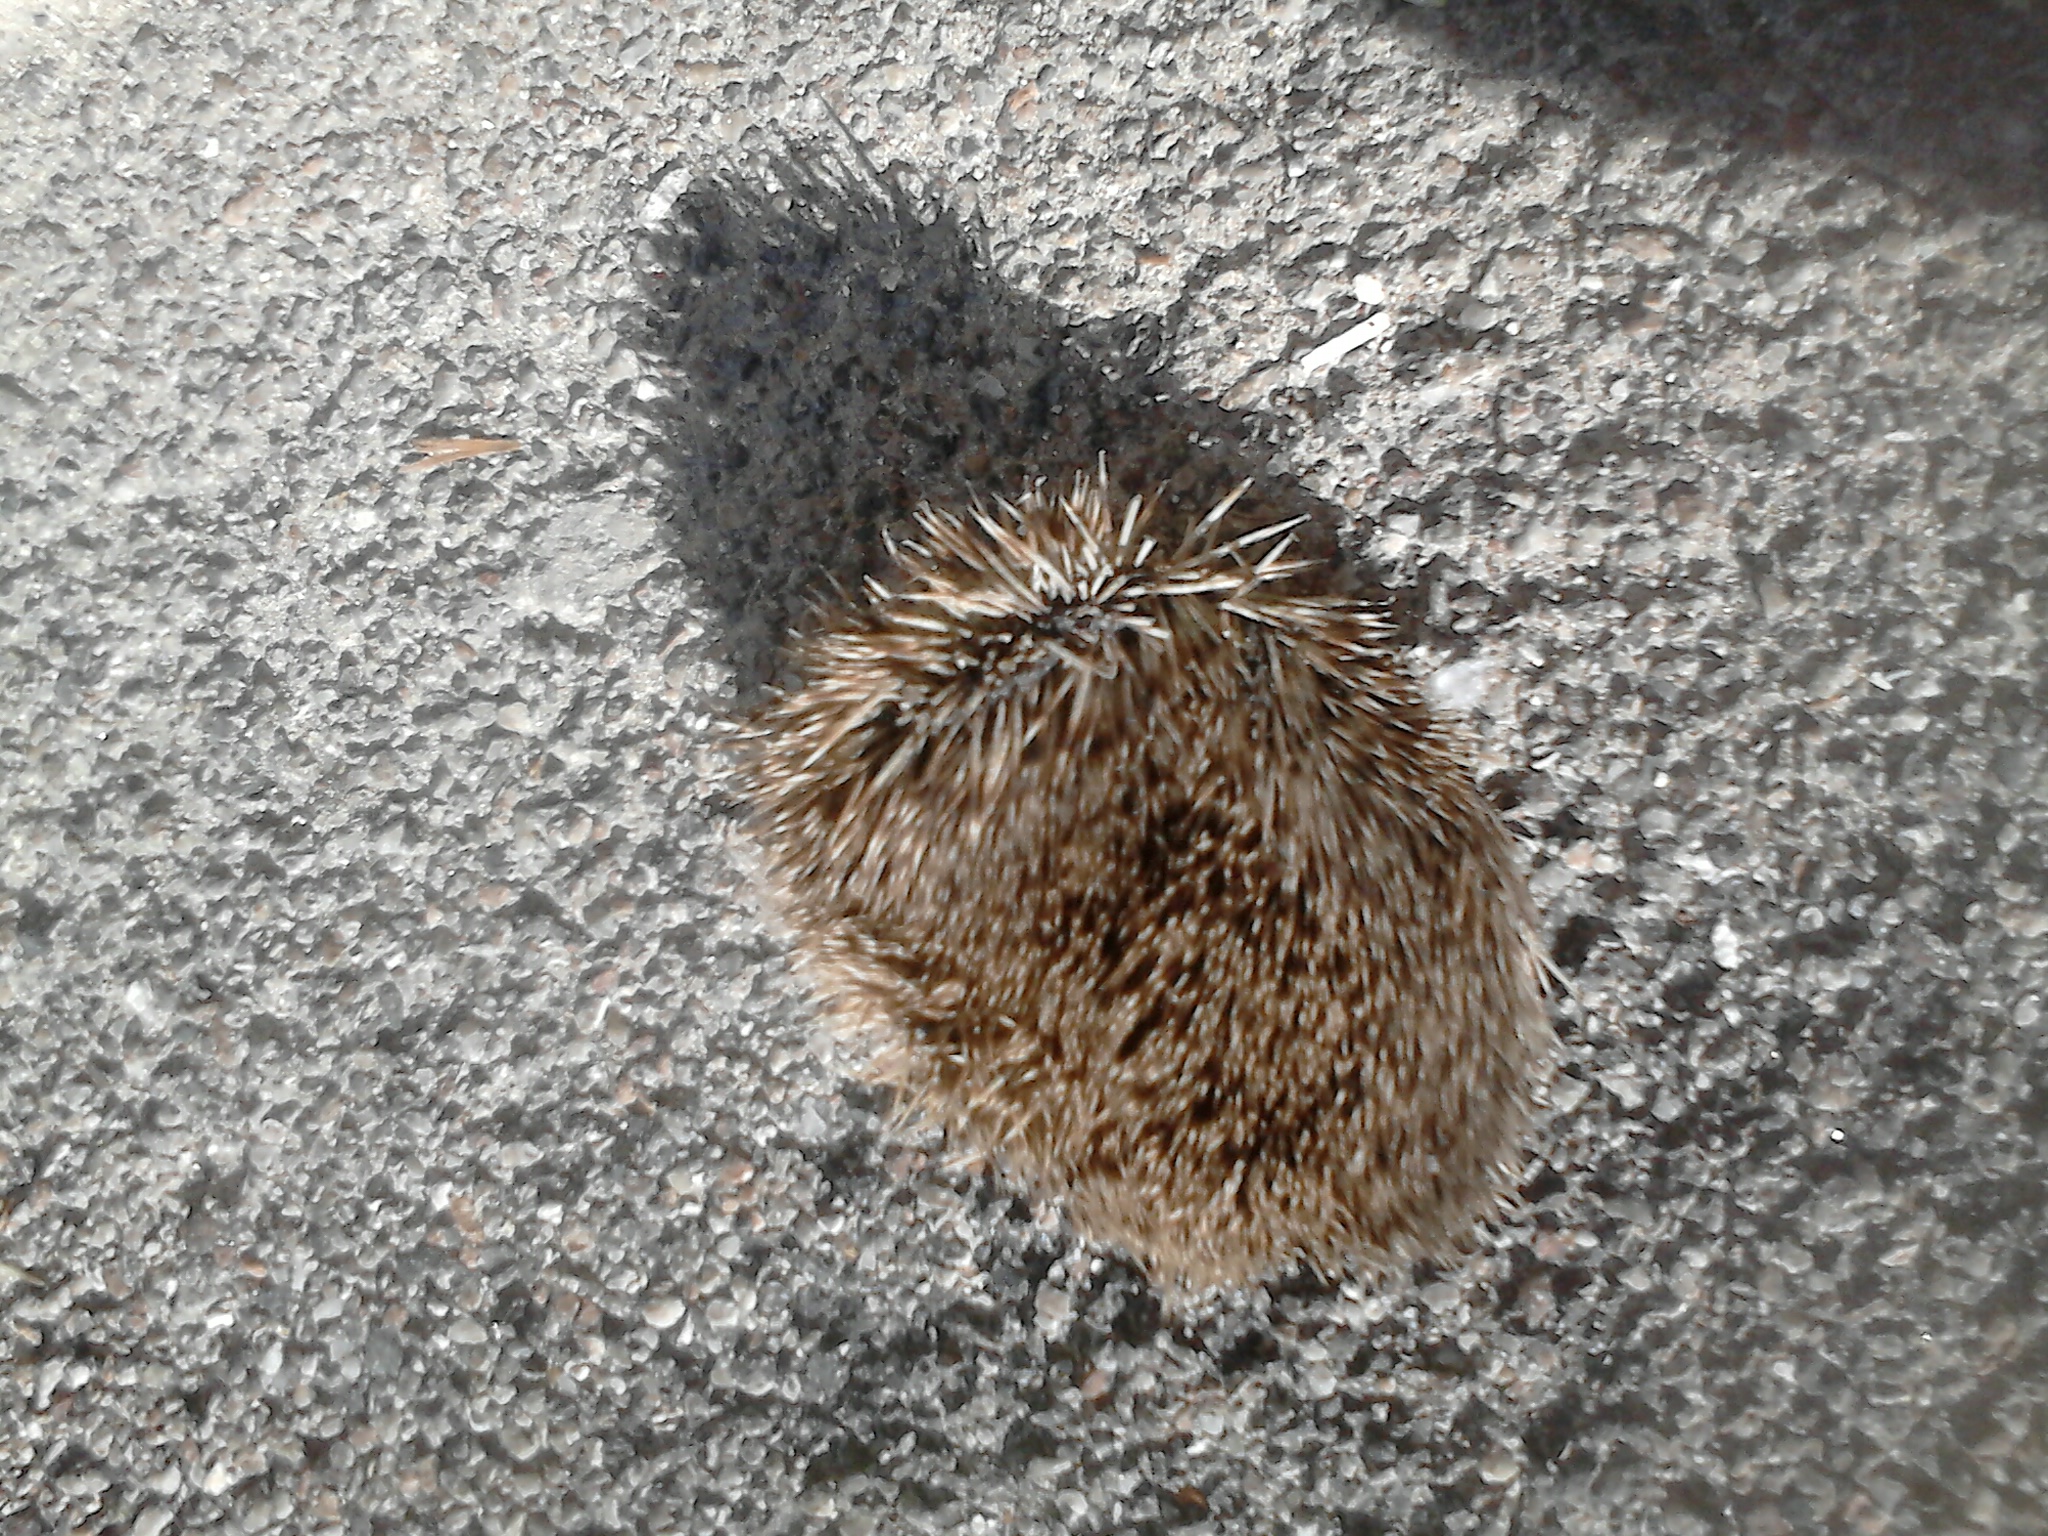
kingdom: Animalia
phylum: Chordata
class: Mammalia
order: Erinaceomorpha
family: Erinaceidae
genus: Erinaceus
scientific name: Erinaceus
